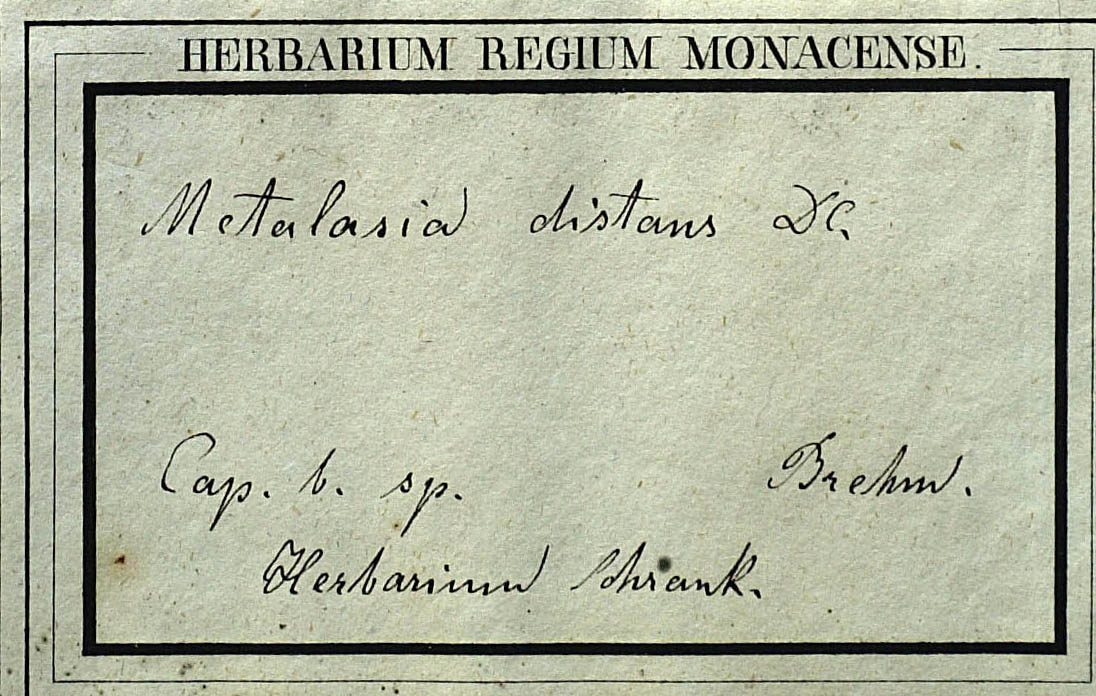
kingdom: Plantae
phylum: Tracheophyta
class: Magnoliopsida
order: Asterales
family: Asteraceae
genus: Metalasia
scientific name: Metalasia distans
